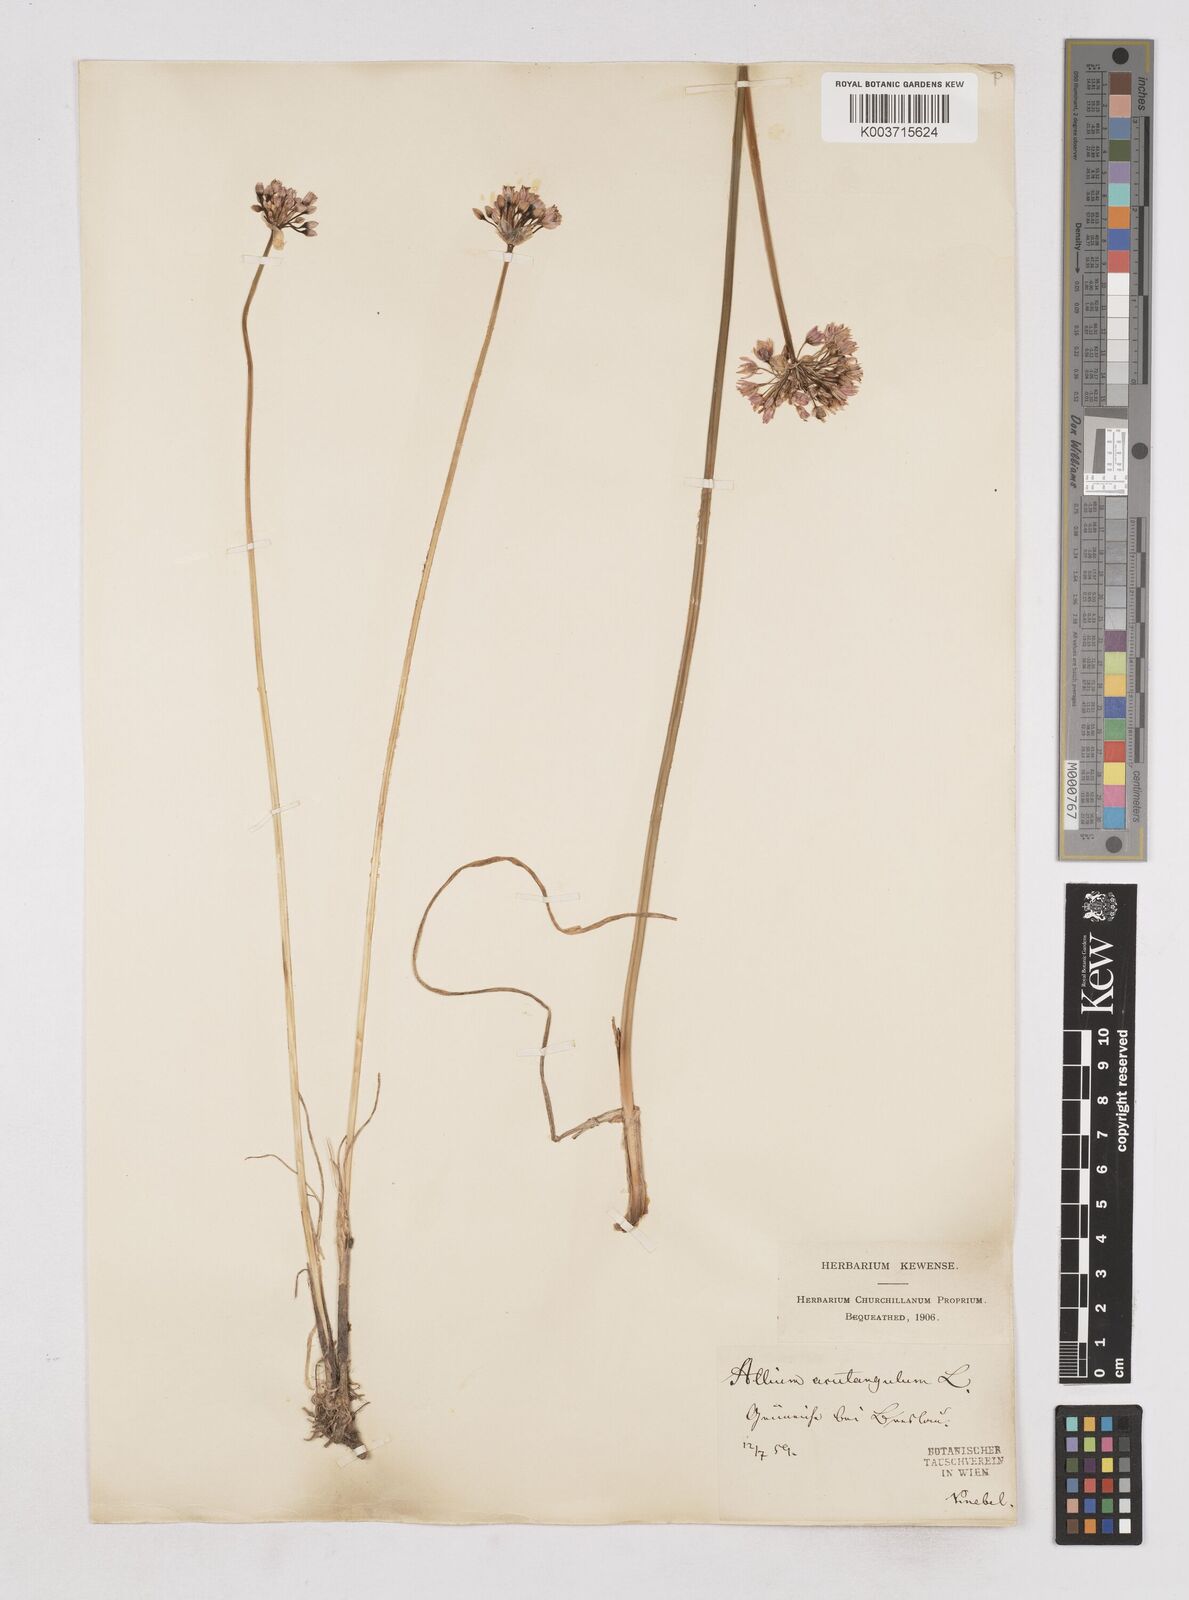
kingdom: Plantae
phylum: Tracheophyta
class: Liliopsida
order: Asparagales
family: Amaryllidaceae
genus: Allium
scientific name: Allium angulosum
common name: Mouse garlic
